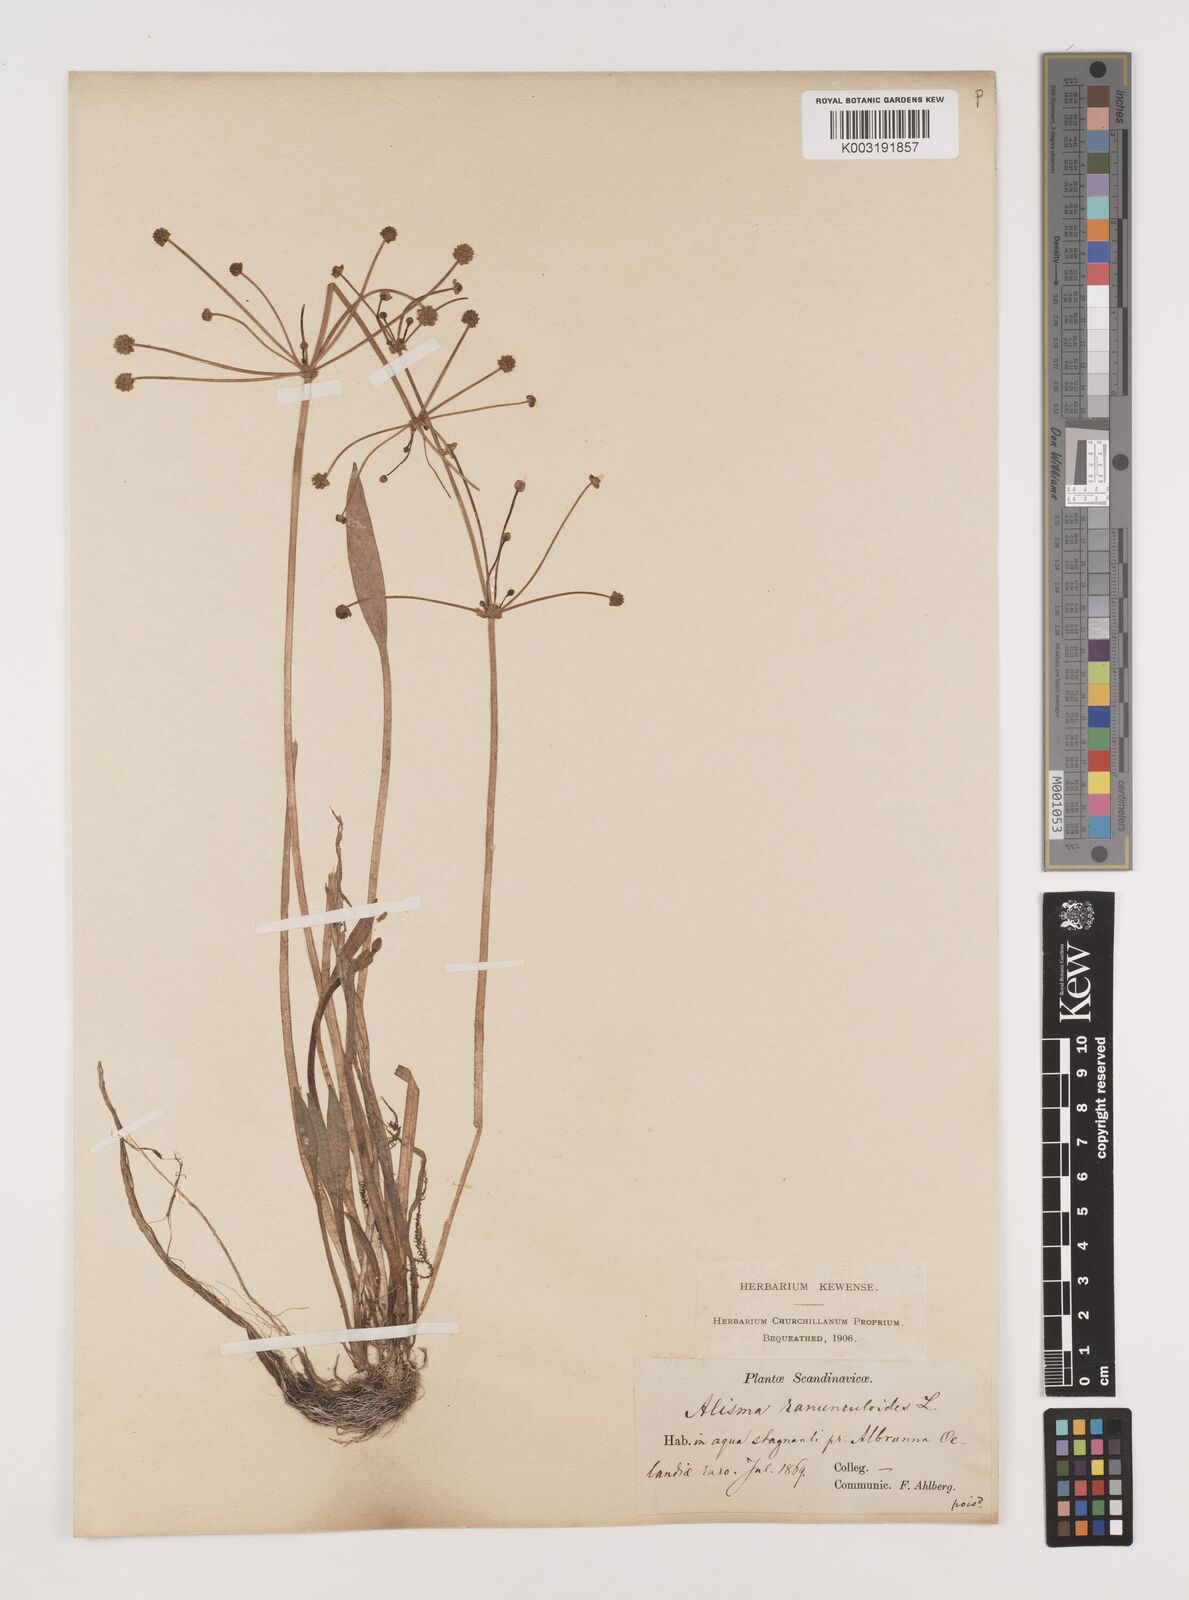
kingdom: Plantae
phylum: Tracheophyta
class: Liliopsida
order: Alismatales
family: Alismataceae
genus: Baldellia
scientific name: Baldellia ranunculoides
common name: Lesser water-plantain
